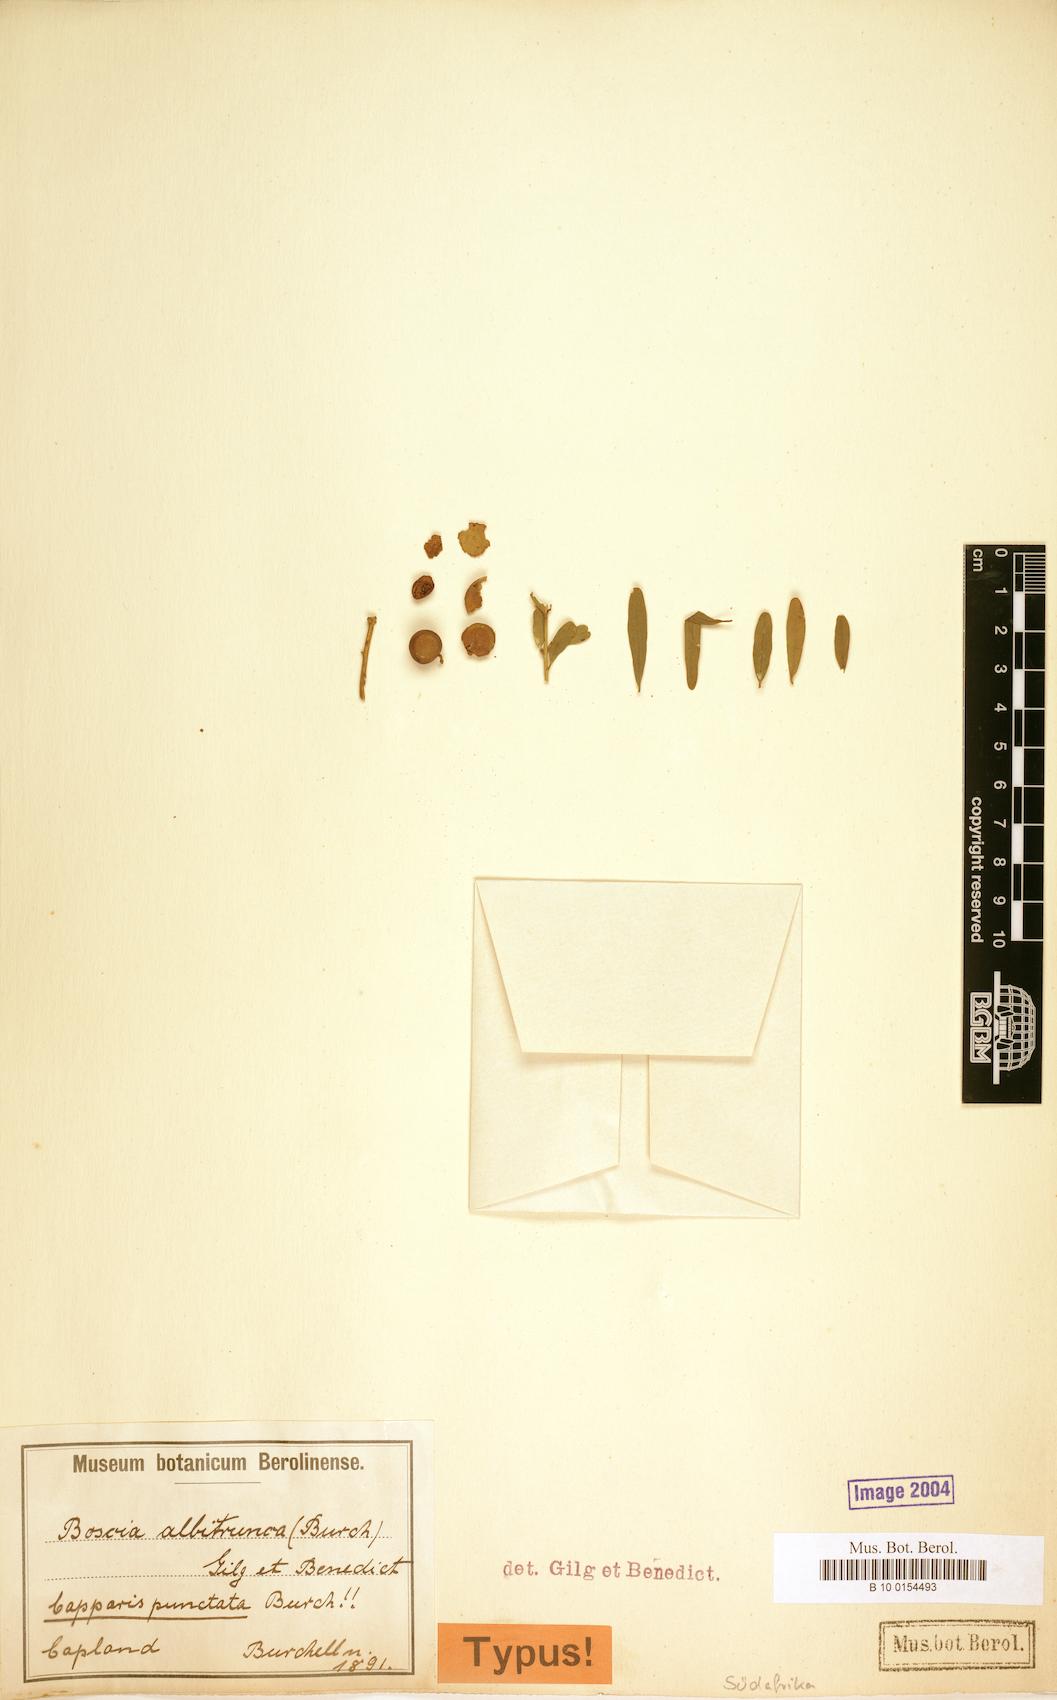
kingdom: Plantae
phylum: Tracheophyta
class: Magnoliopsida
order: Brassicales
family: Capparaceae
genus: Boscia
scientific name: Boscia albitrunca
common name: Caper bush
